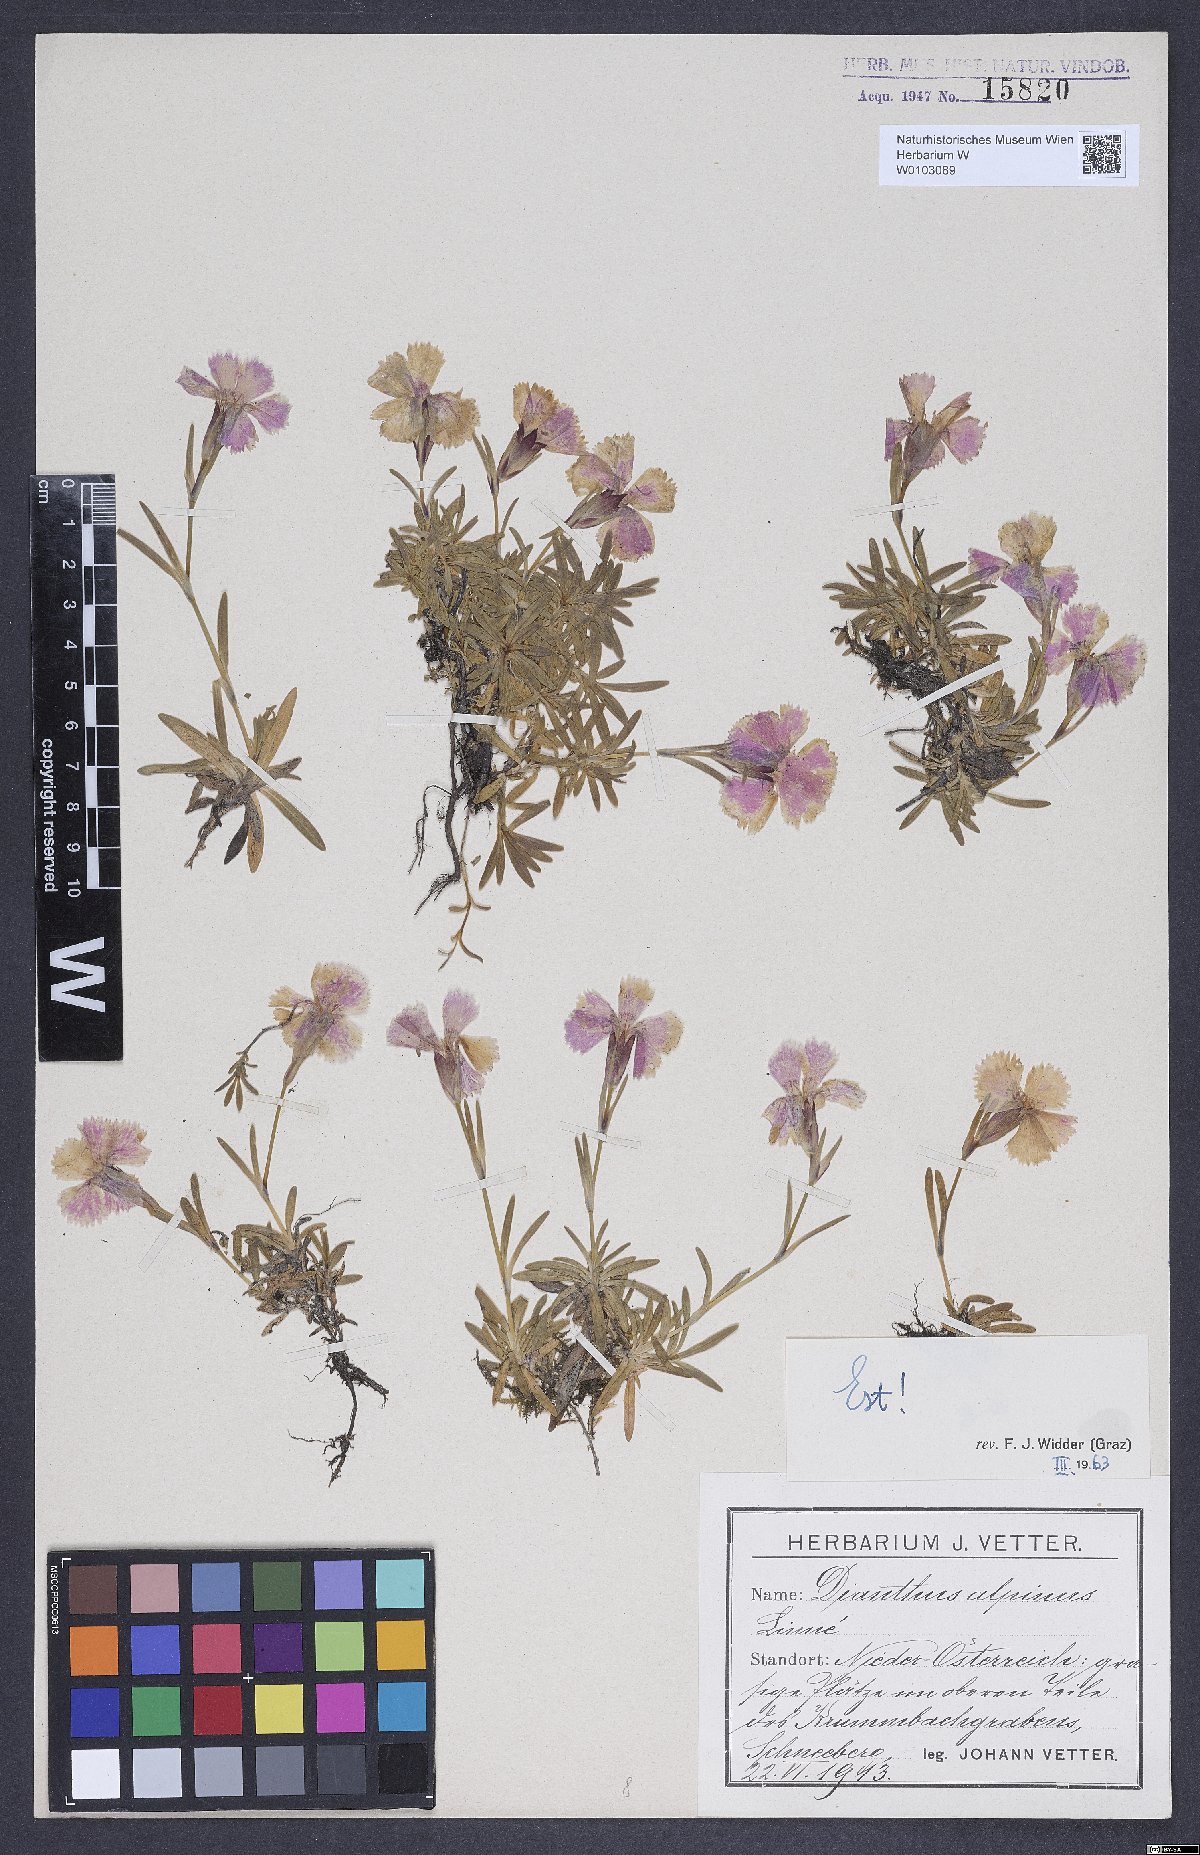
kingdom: Plantae
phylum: Tracheophyta
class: Magnoliopsida
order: Caryophyllales
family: Caryophyllaceae
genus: Dianthus
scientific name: Dianthus alpinus
